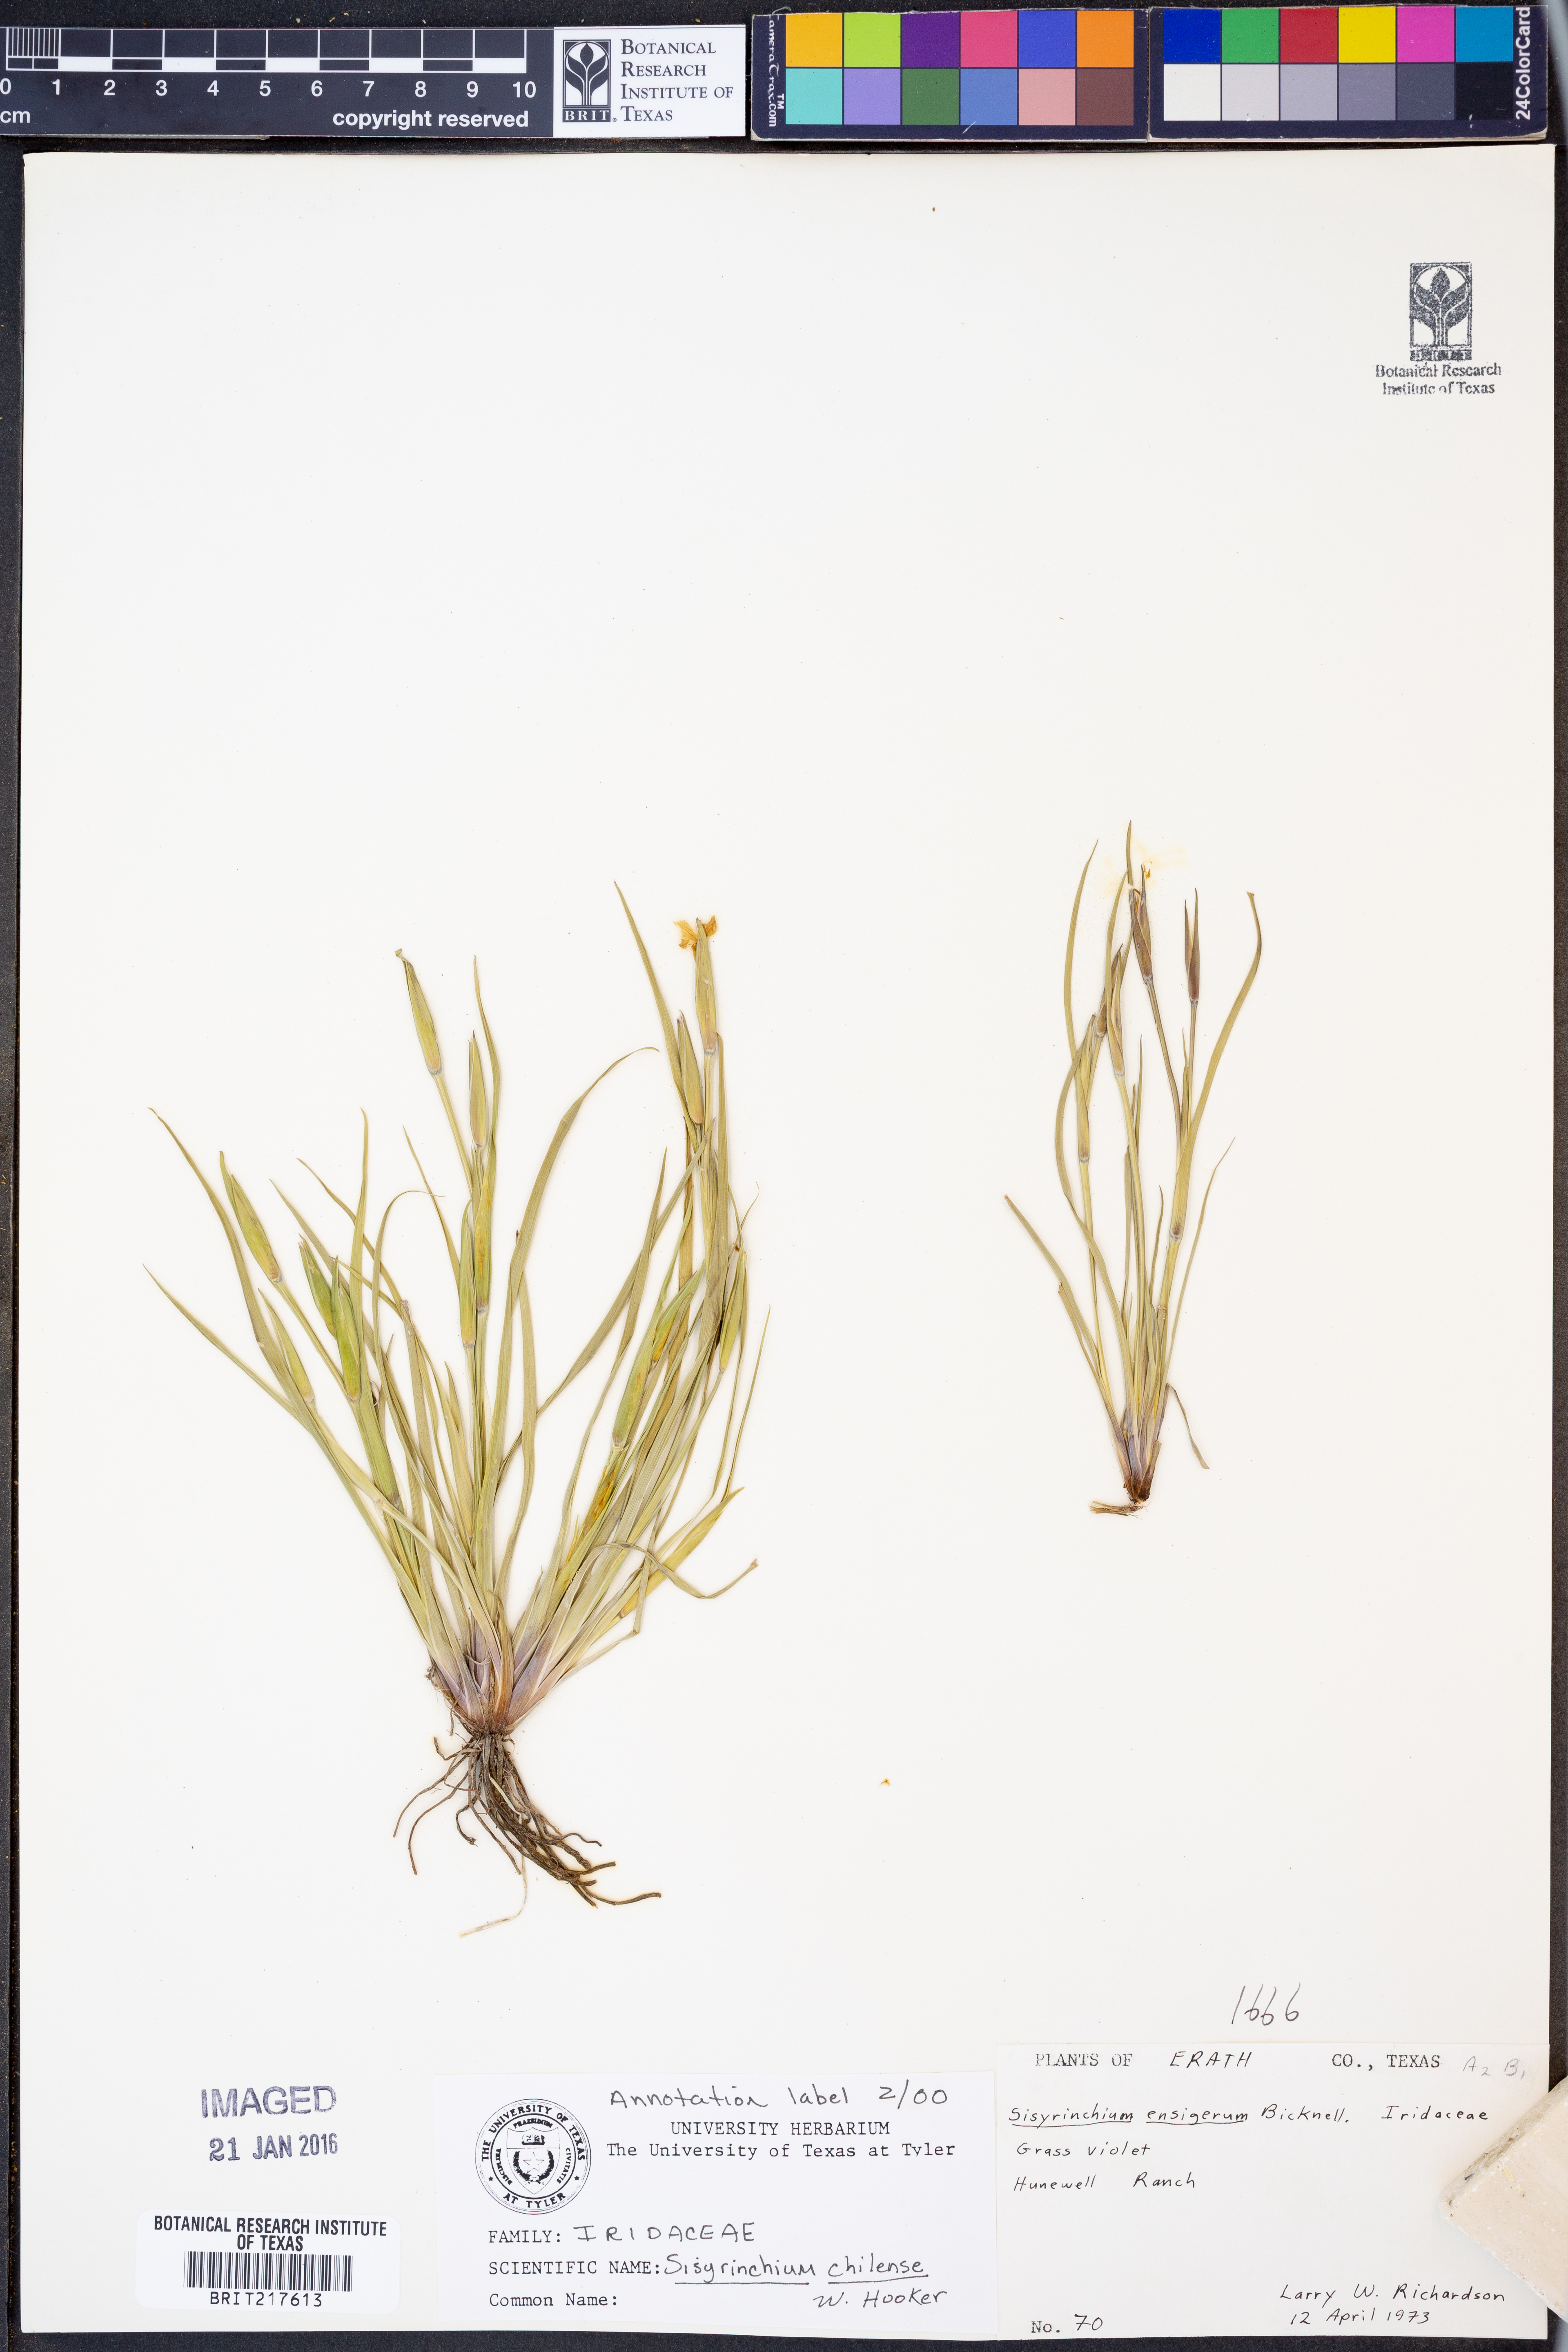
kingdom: Plantae
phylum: Tracheophyta
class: Liliopsida
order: Asparagales
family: Iridaceae
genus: Sisyrinchium
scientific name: Sisyrinchium chilense
